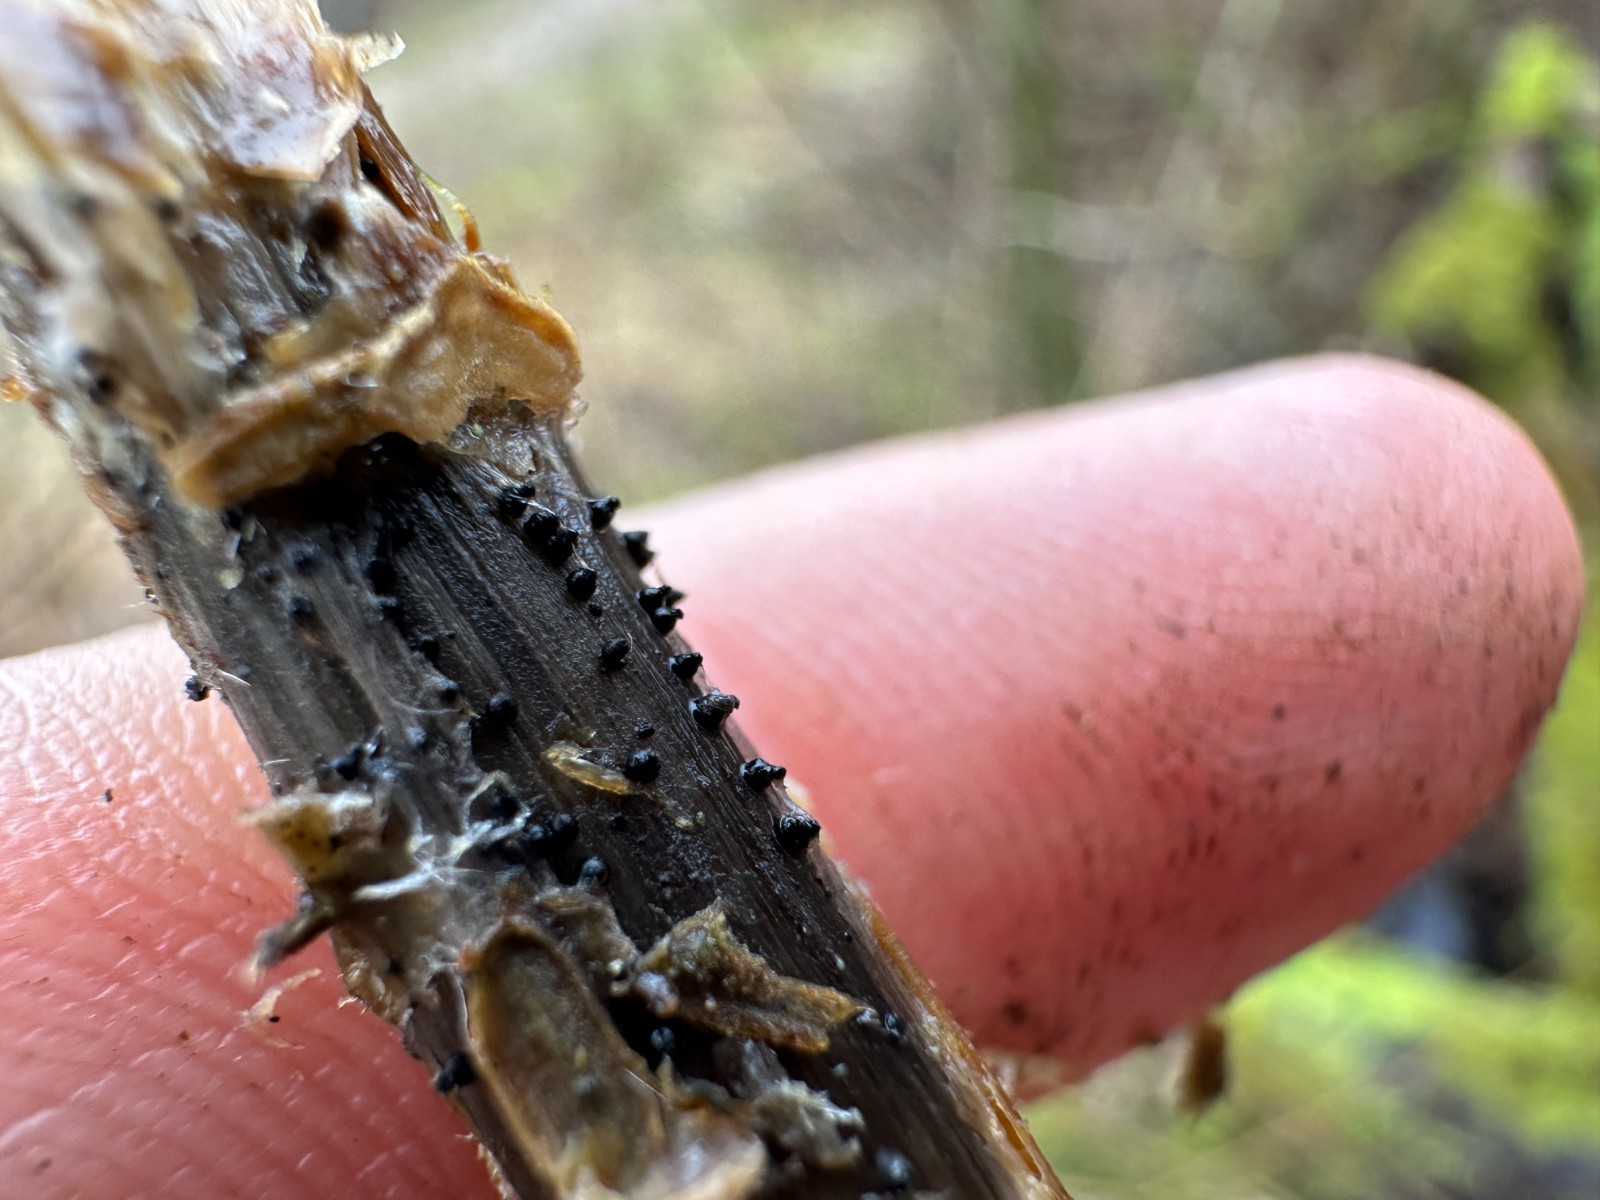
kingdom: Fungi
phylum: Ascomycota
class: Dothideomycetes
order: Pleosporales
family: Leptosphaeriaceae
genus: Leptosphaeria
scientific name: Leptosphaeria
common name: kulkegle
